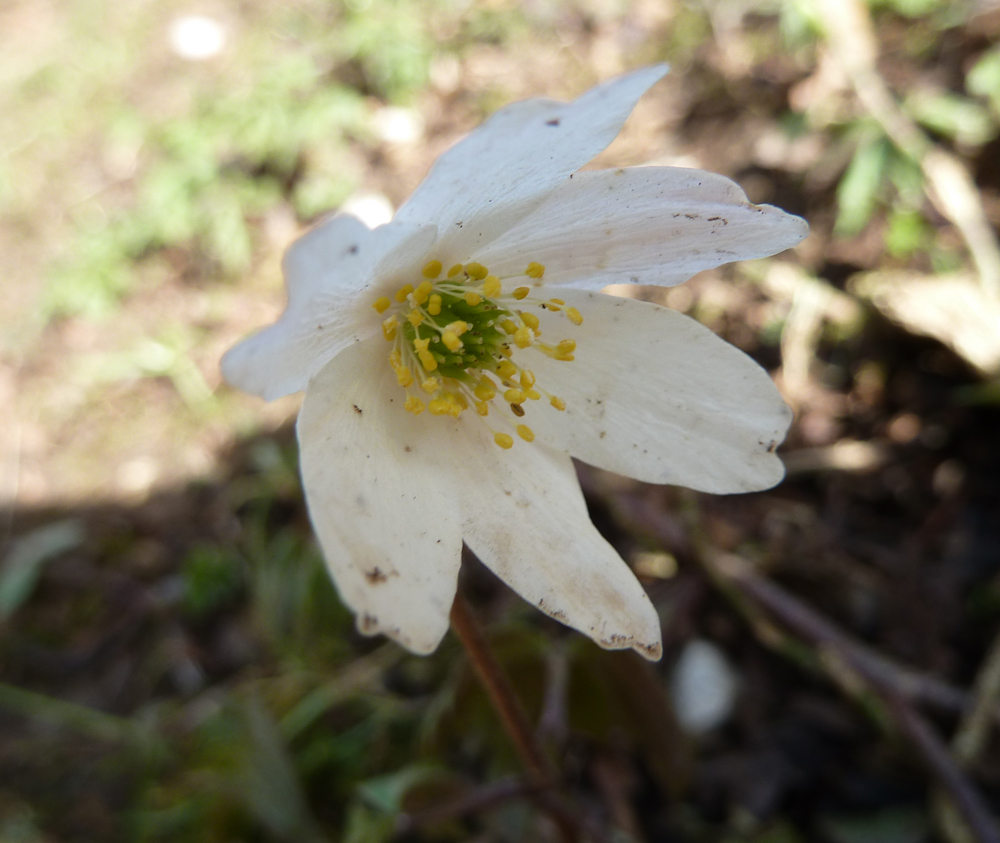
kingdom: Plantae
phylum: Tracheophyta
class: Magnoliopsida
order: Ranunculales
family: Ranunculaceae
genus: Anemone
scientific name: Anemone nemorosa
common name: Wood anemone
